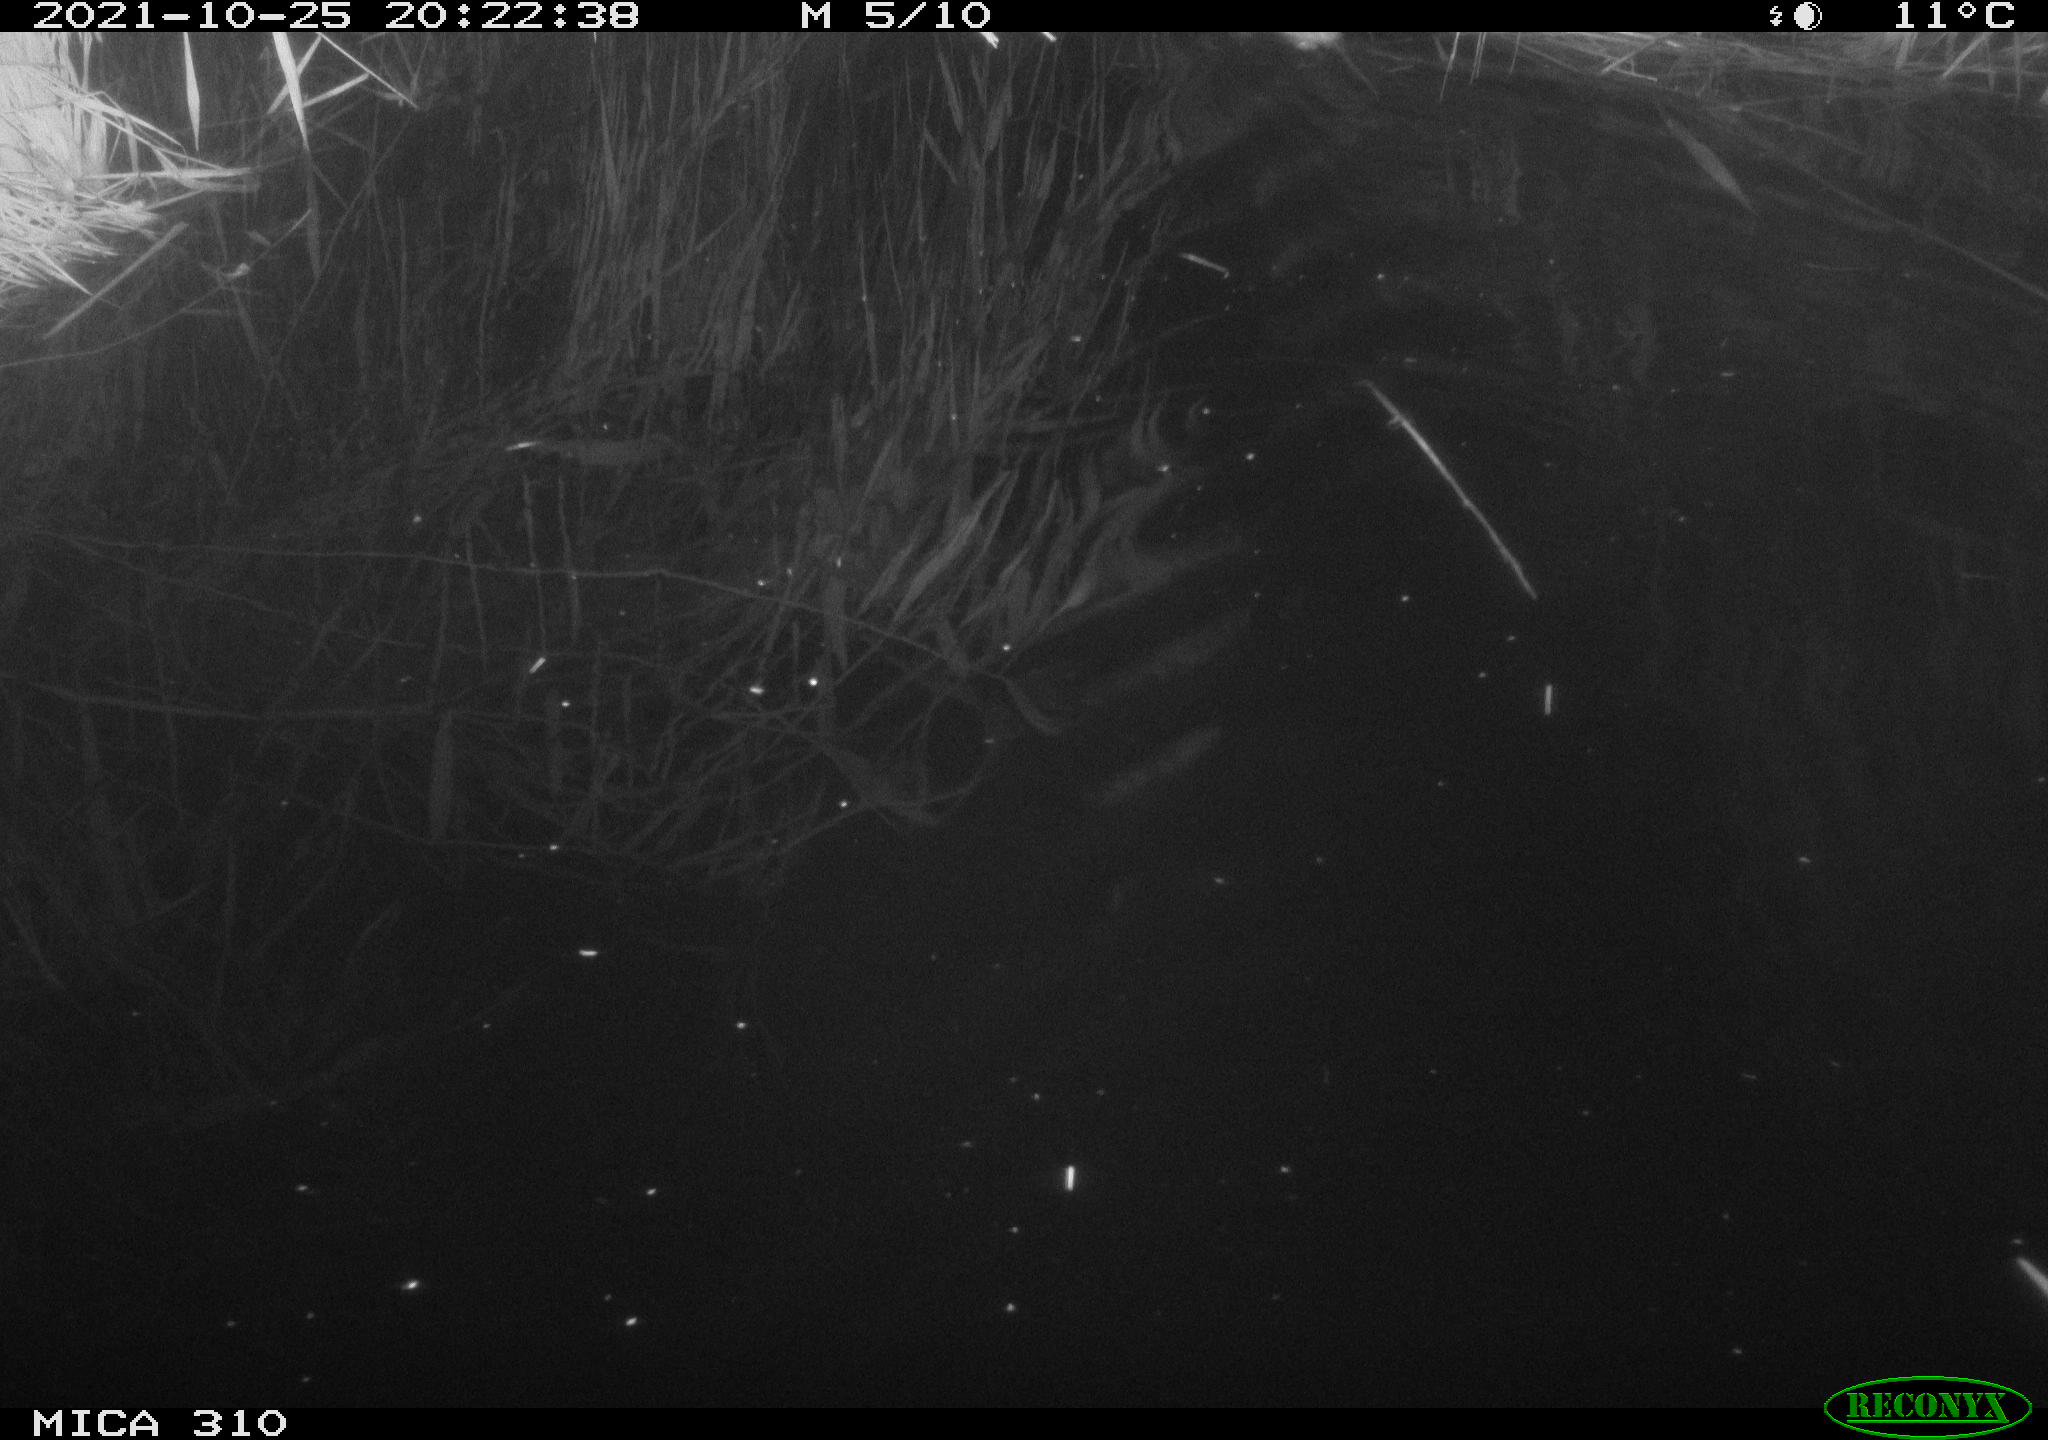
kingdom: Animalia
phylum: Chordata
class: Mammalia
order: Rodentia
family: Muridae
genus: Rattus
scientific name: Rattus norvegicus
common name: Brown rat
